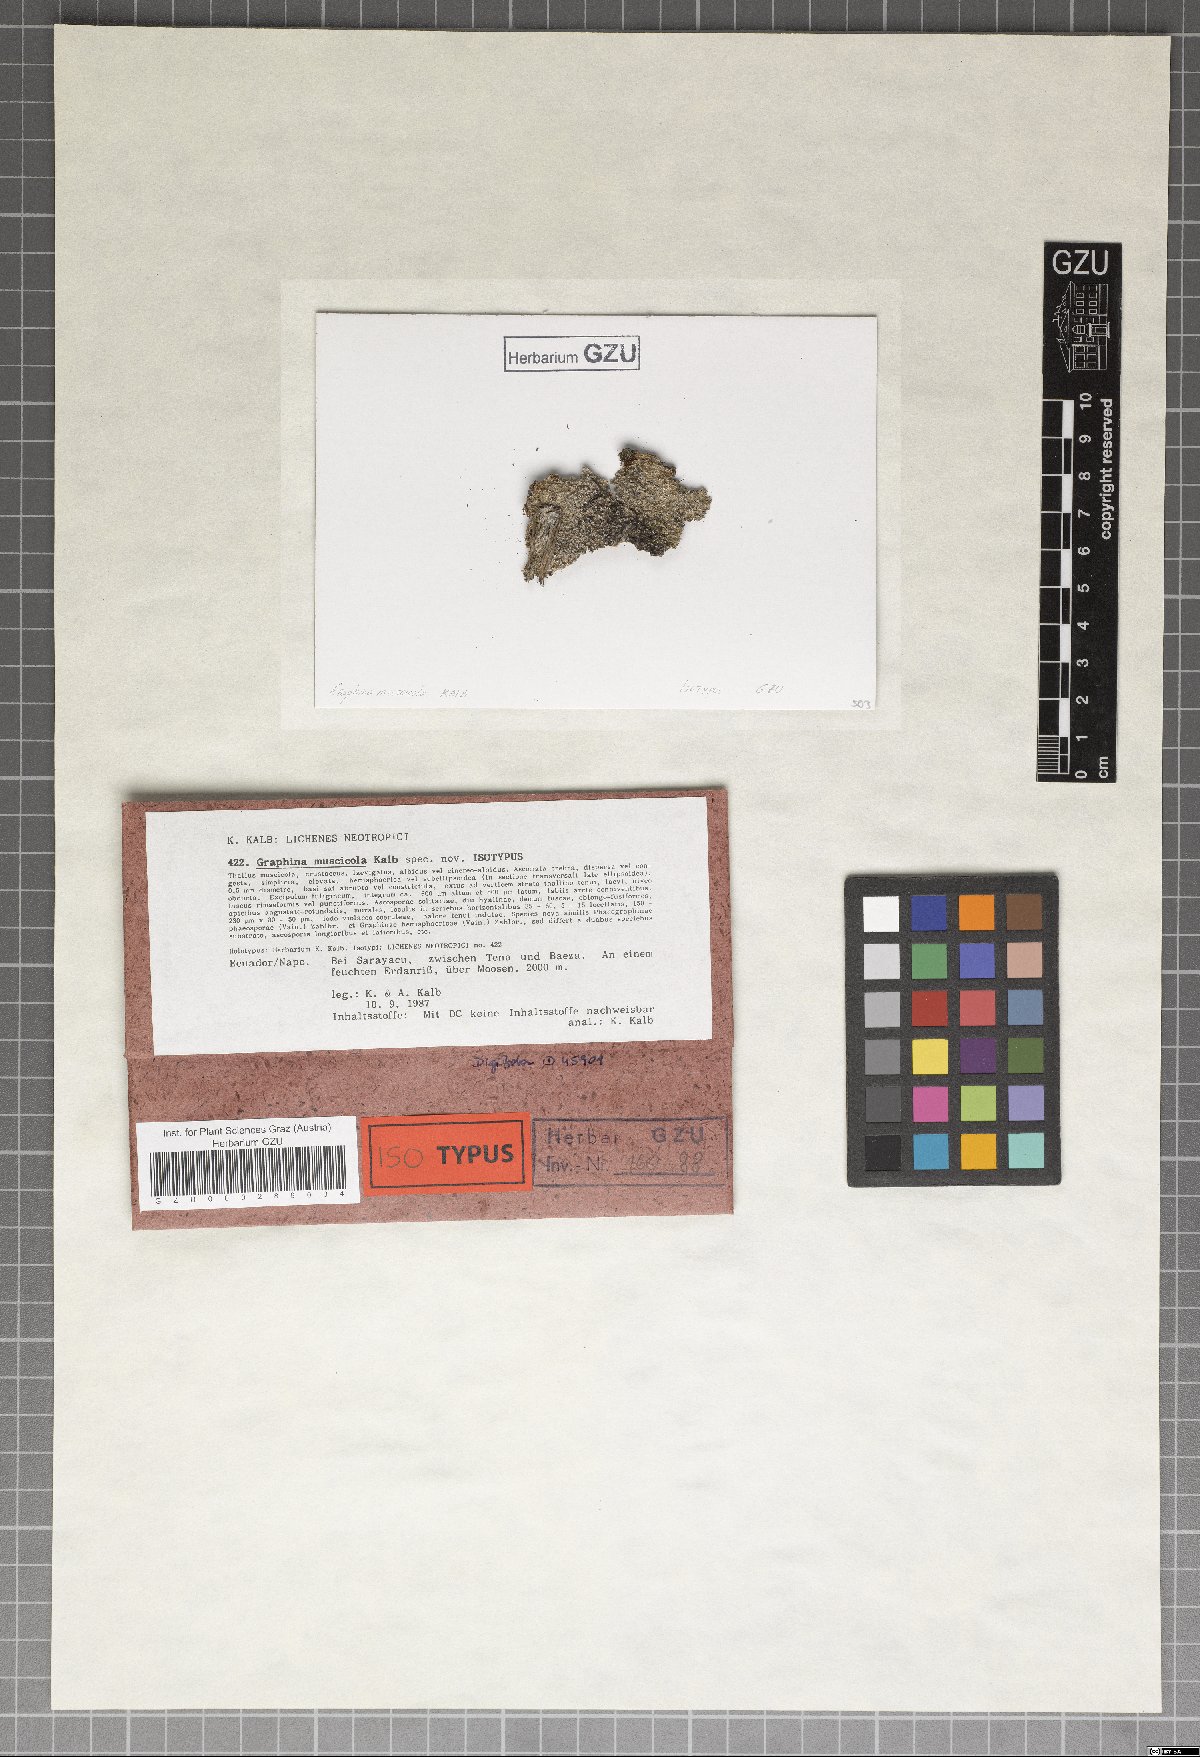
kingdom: Fungi
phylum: Ascomycota
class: Lecanoromycetes
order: Ostropales
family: Graphidaceae
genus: Graphis
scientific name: Graphis muscicola
